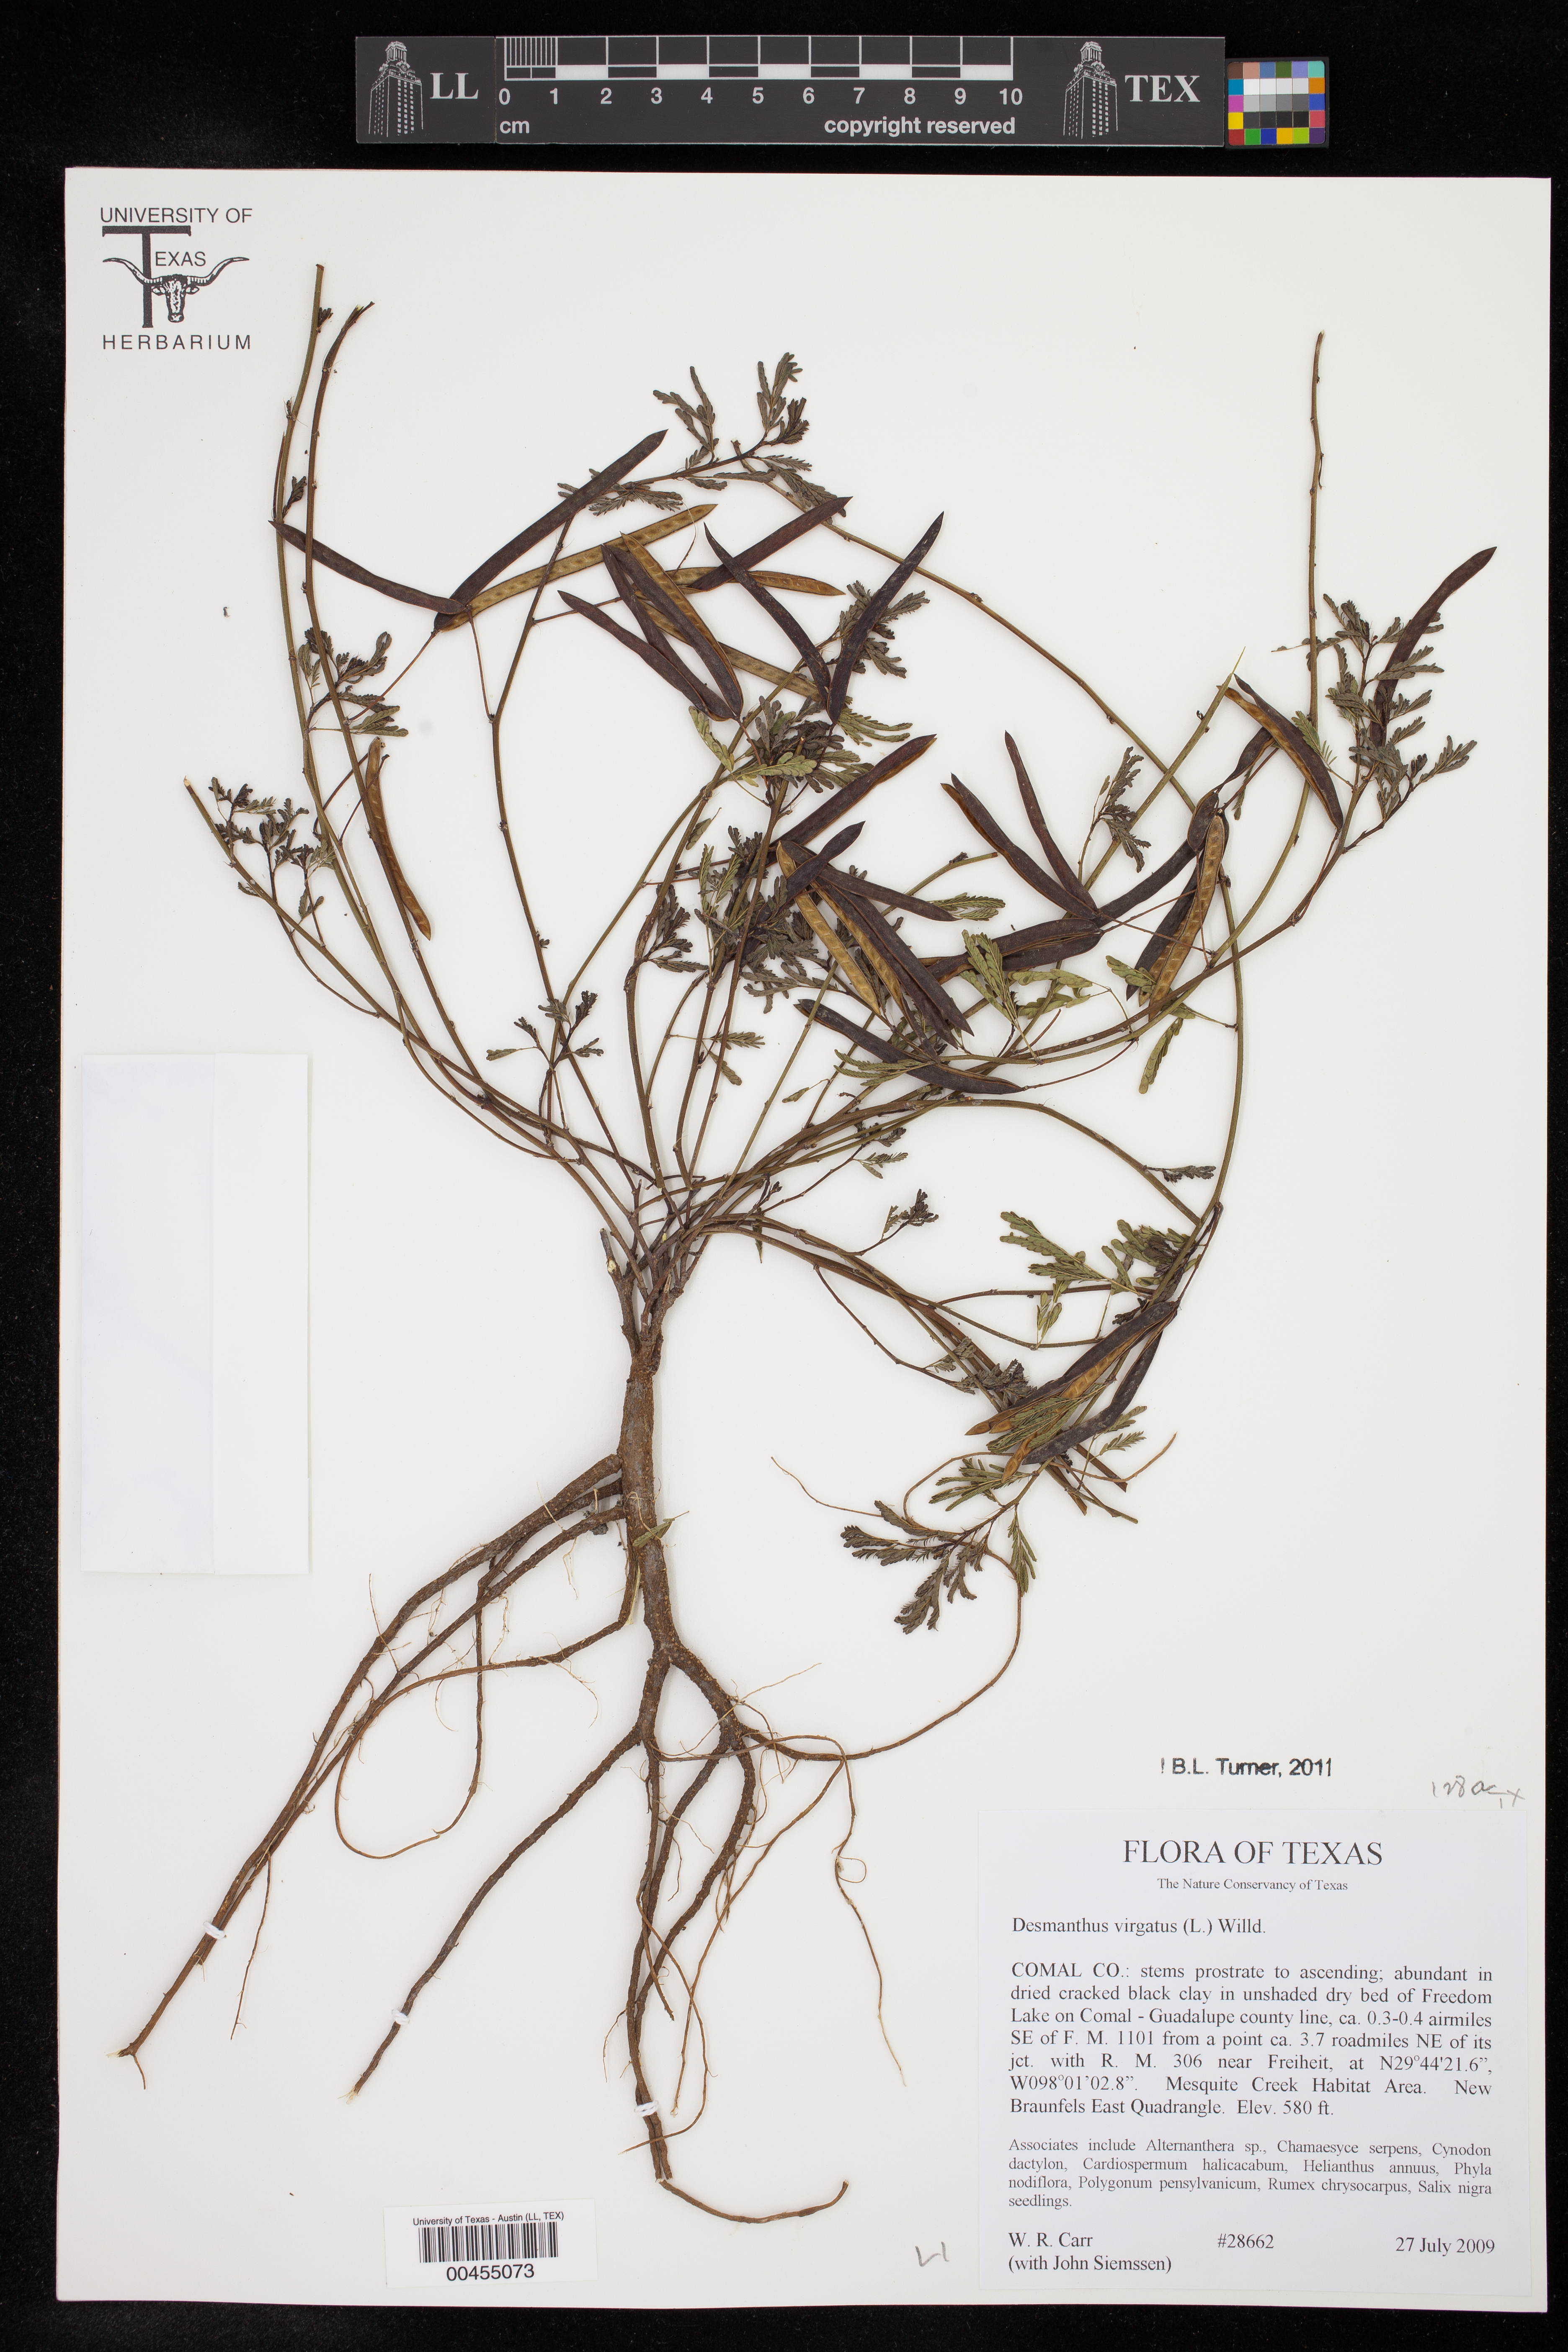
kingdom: Plantae
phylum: Tracheophyta
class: Magnoliopsida
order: Fabales
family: Fabaceae
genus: Desmanthus
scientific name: Desmanthus virgatus
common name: Wild tantan
